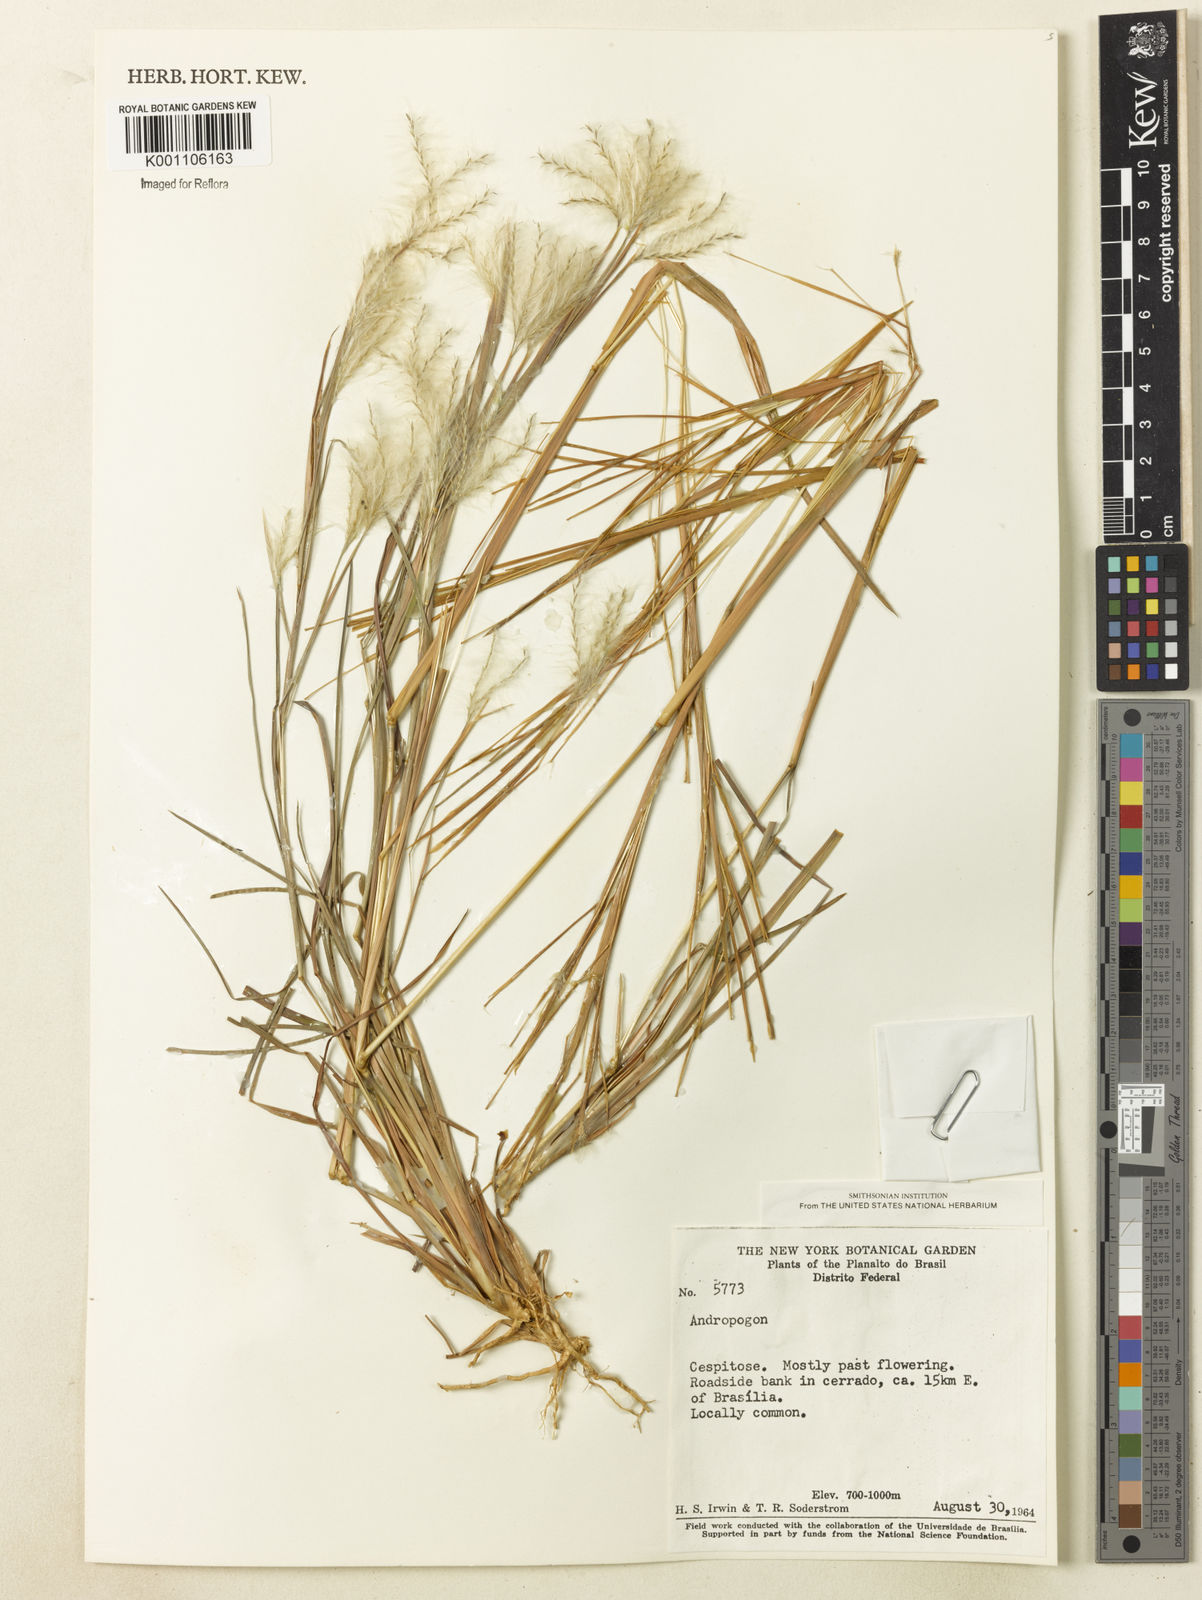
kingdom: Plantae
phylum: Tracheophyta
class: Liliopsida
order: Poales
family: Poaceae
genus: Andropogon
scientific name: Andropogon leucostachyus
